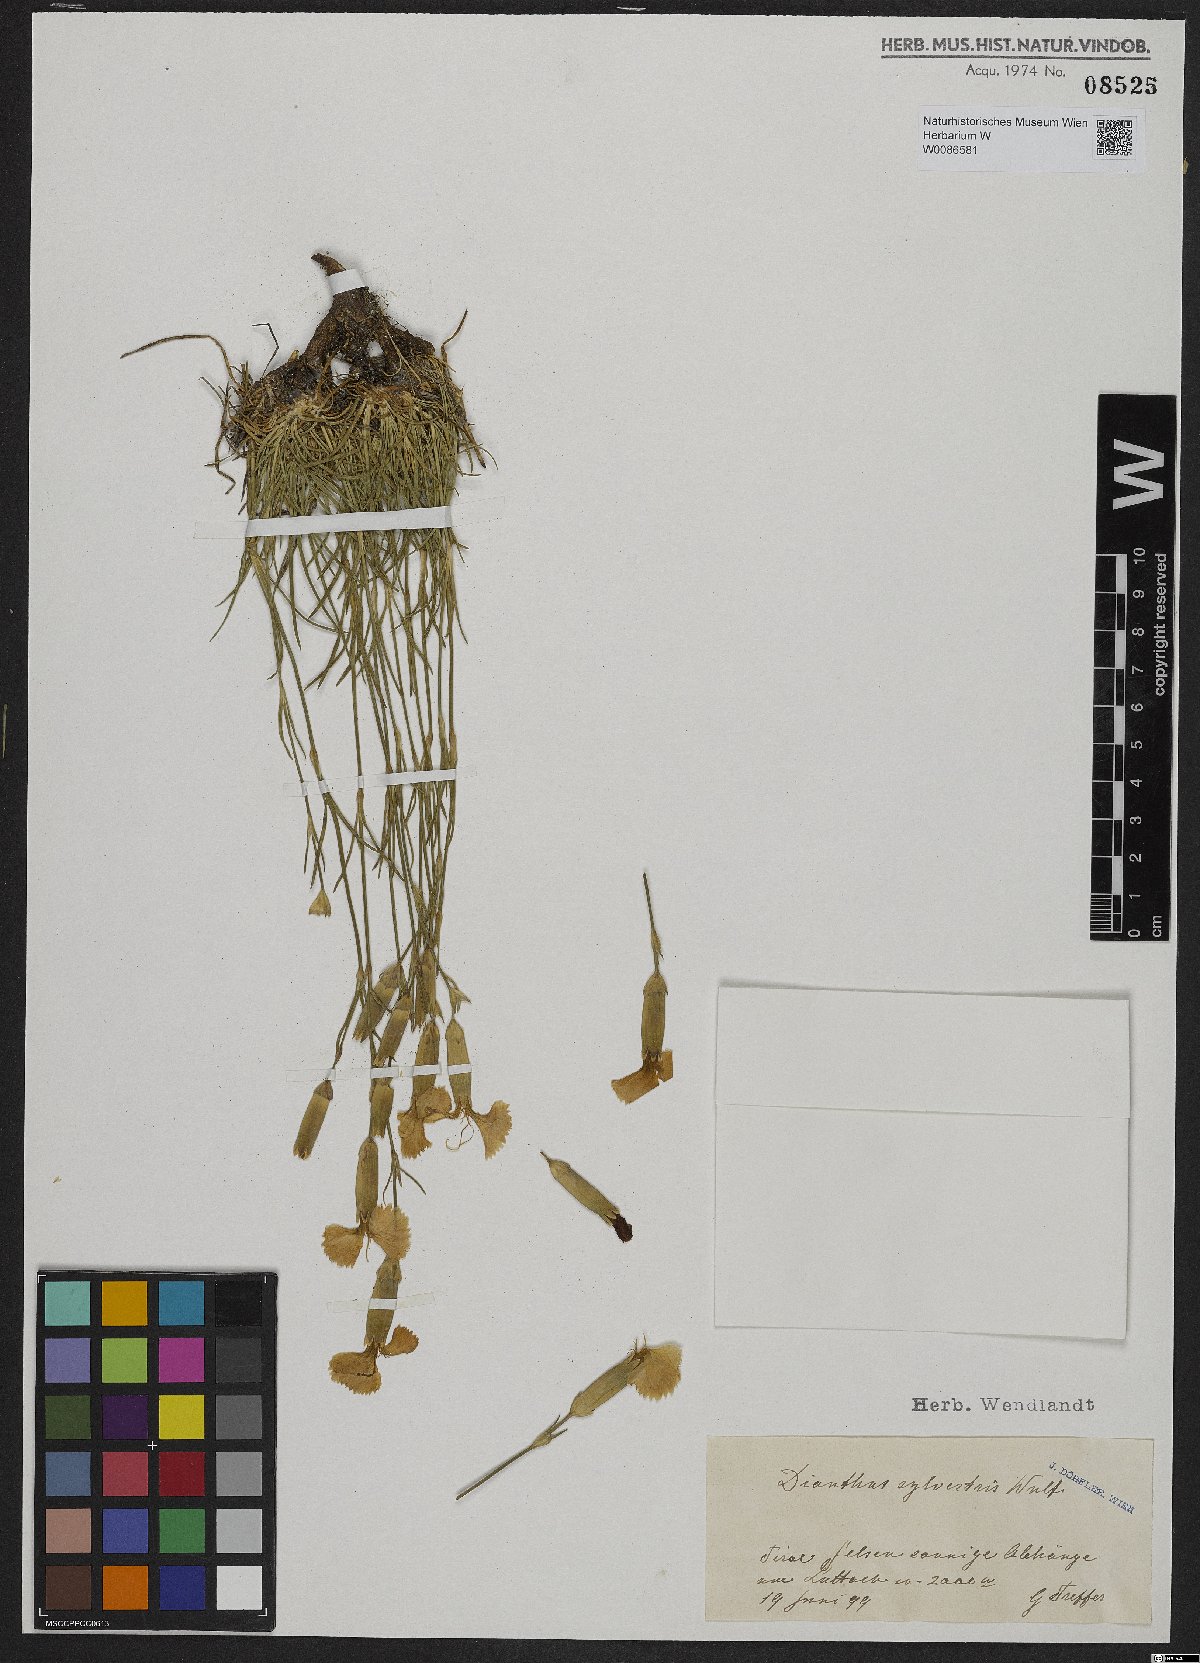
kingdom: Plantae
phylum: Tracheophyta
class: Magnoliopsida
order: Caryophyllales
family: Caryophyllaceae
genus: Dianthus
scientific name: Dianthus sylvestris
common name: Wood pink
